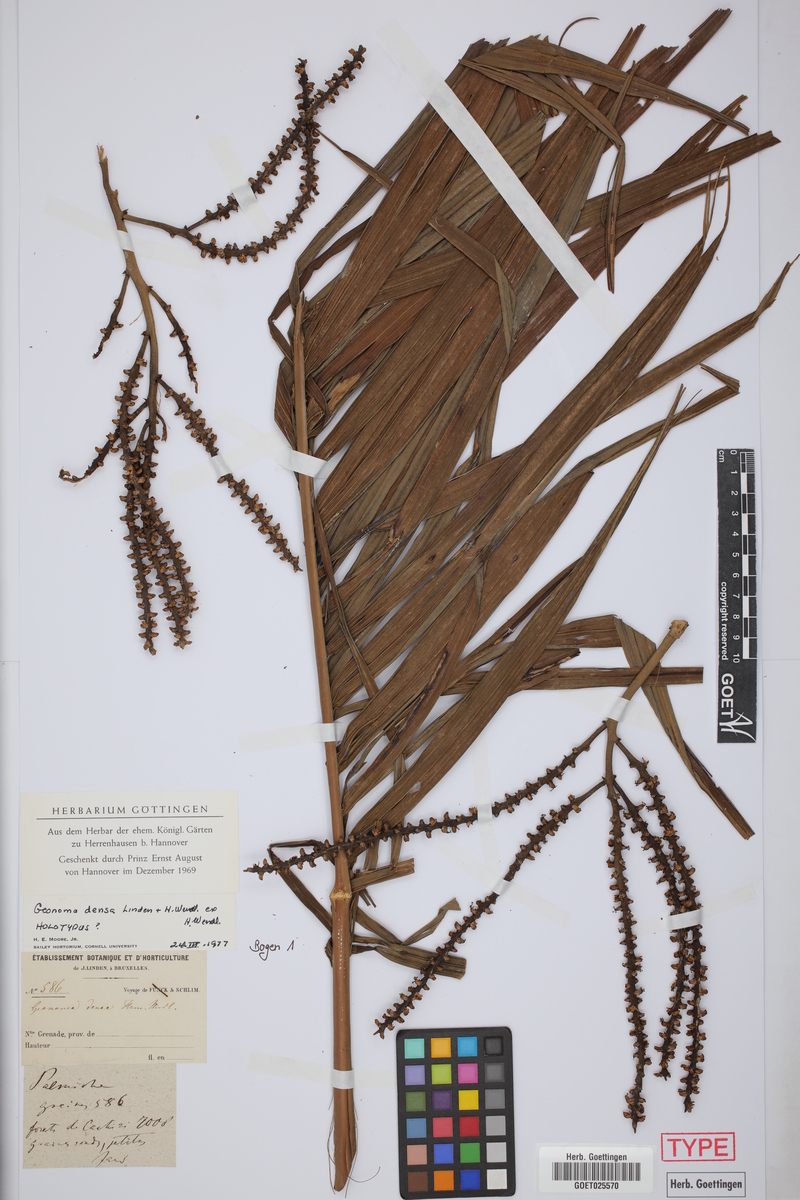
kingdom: Plantae
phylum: Tracheophyta
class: Liliopsida
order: Arecales
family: Arecaceae
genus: Geonoma
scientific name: Geonoma undata
